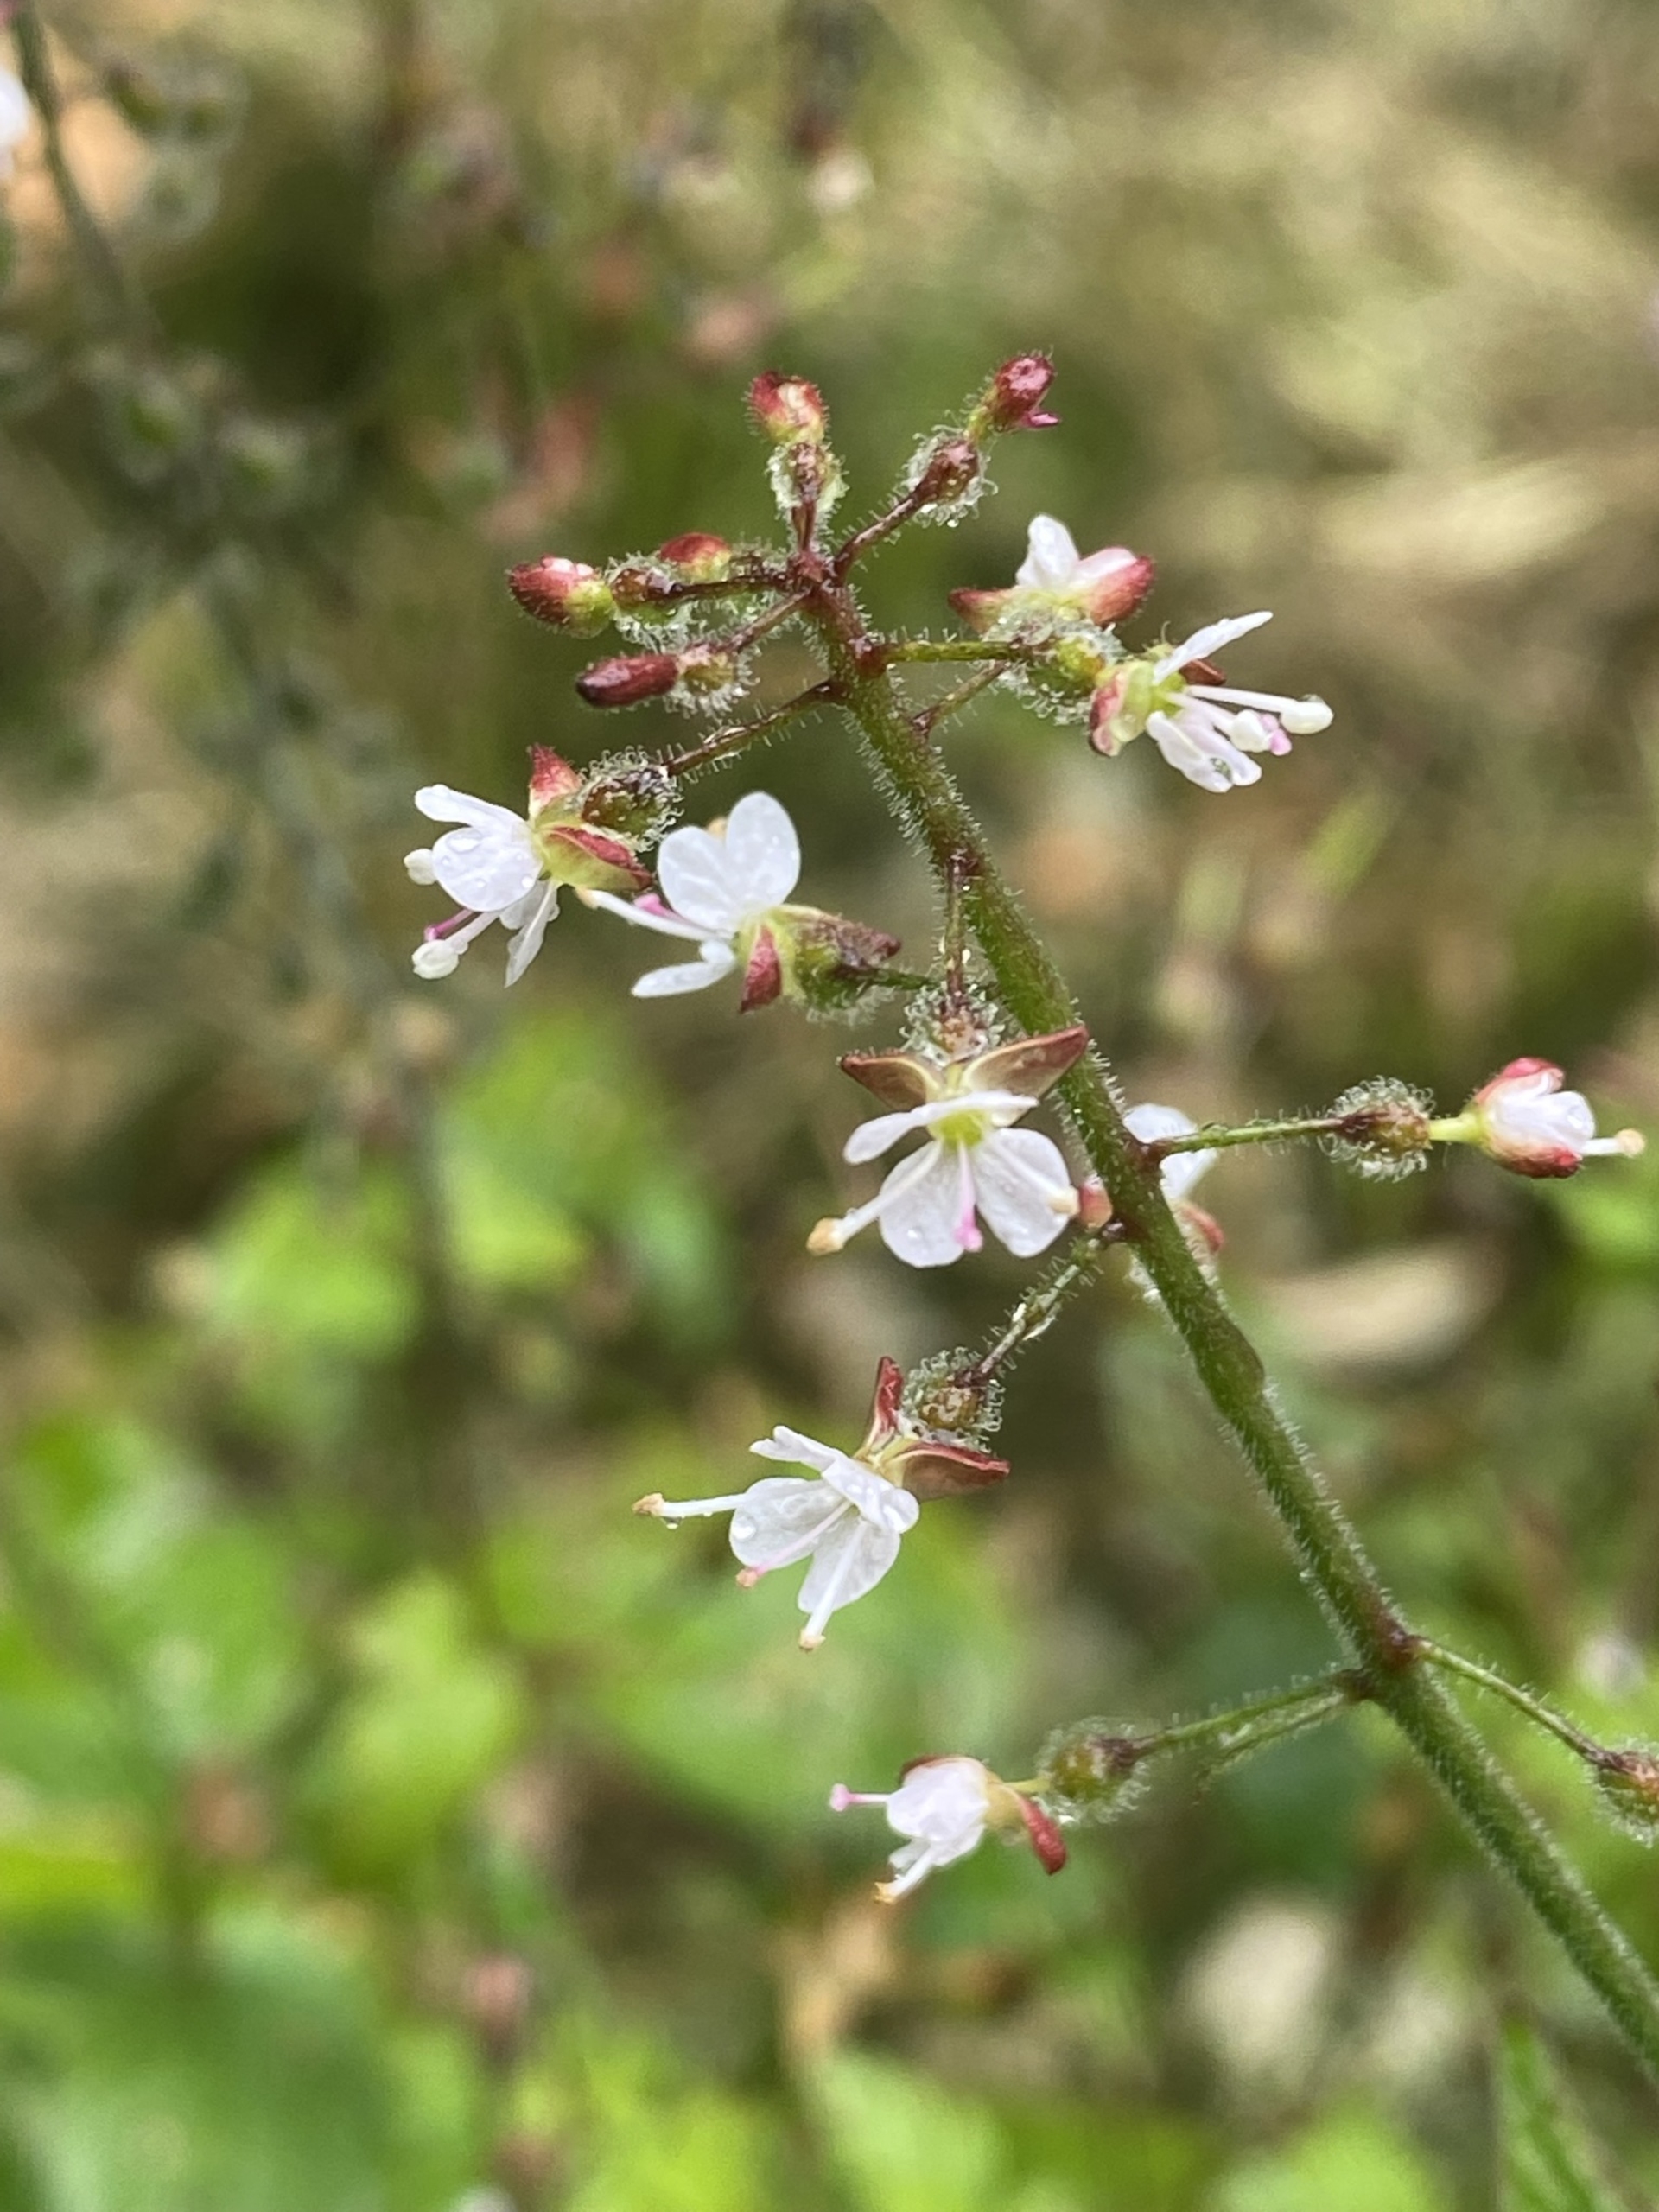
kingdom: Plantae
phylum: Tracheophyta
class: Magnoliopsida
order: Myrtales
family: Onagraceae
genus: Circaea
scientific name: Circaea lutetiana
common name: Dunet steffensurt
